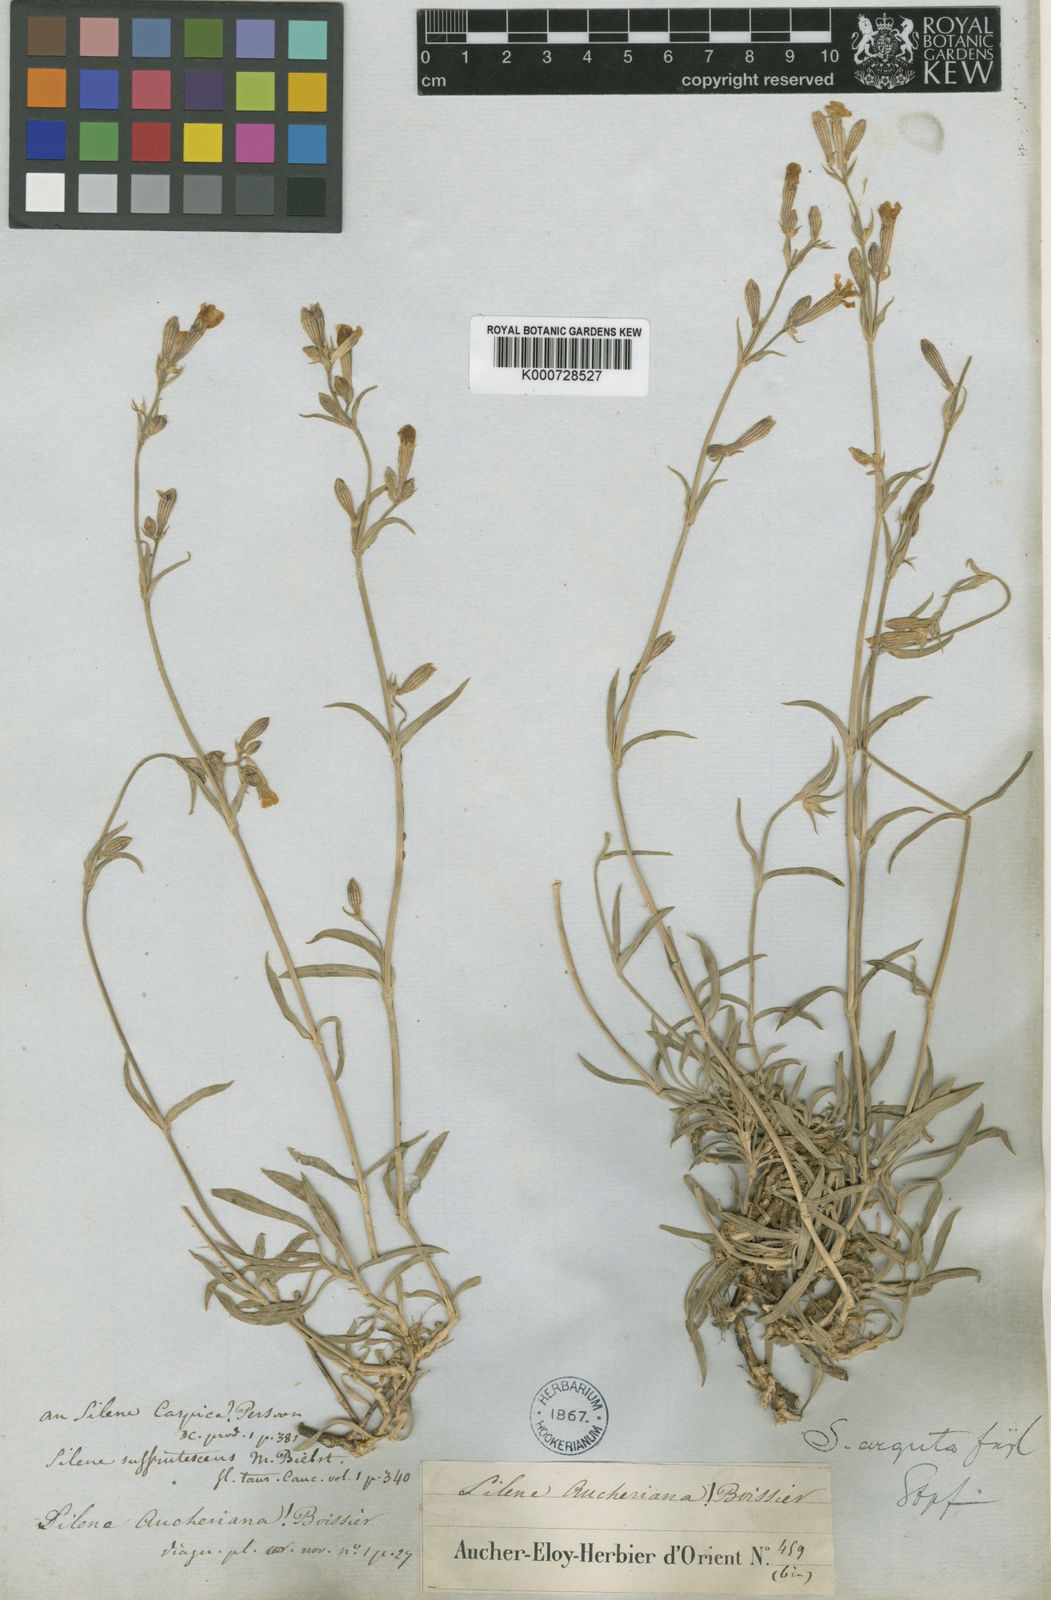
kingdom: Plantae
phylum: Tracheophyta
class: Magnoliopsida
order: Caryophyllales
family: Caryophyllaceae
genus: Silene
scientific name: Silene arguta
